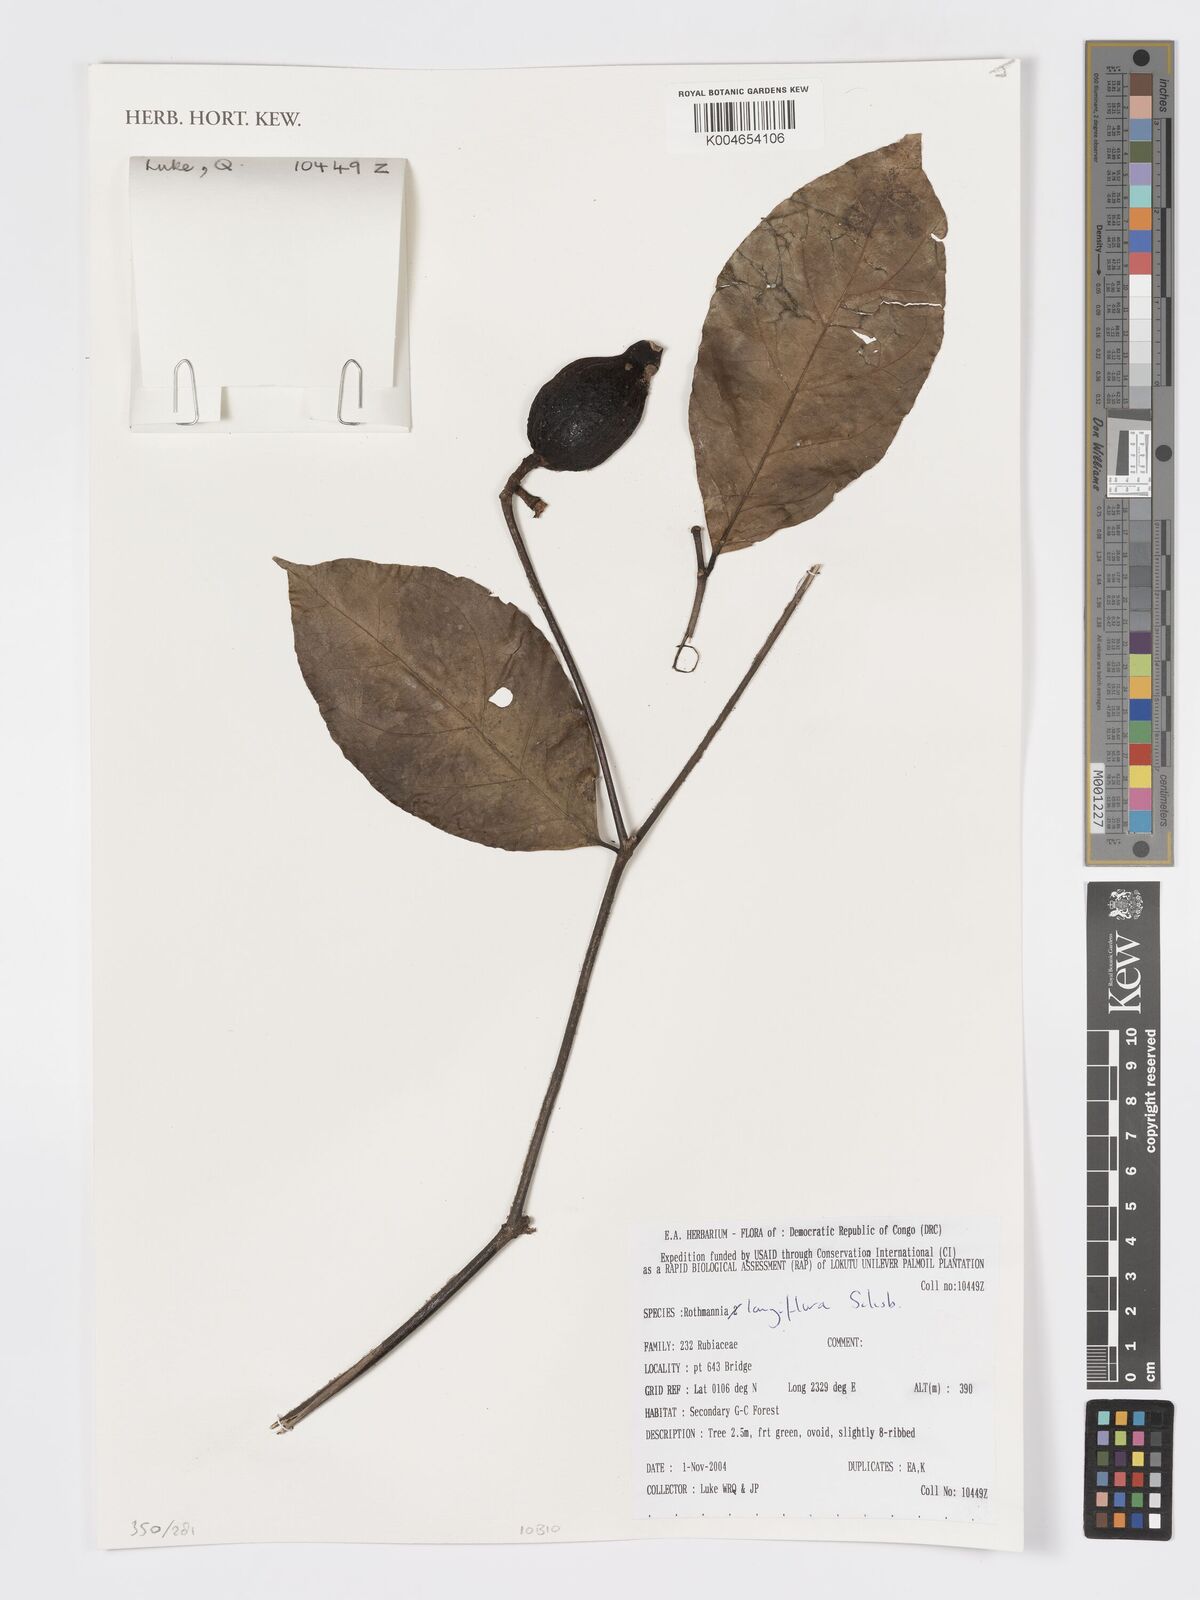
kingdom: Plantae
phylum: Tracheophyta
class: Magnoliopsida
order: Gentianales
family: Rubiaceae
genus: Rothmannia
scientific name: Rothmannia longiflora
